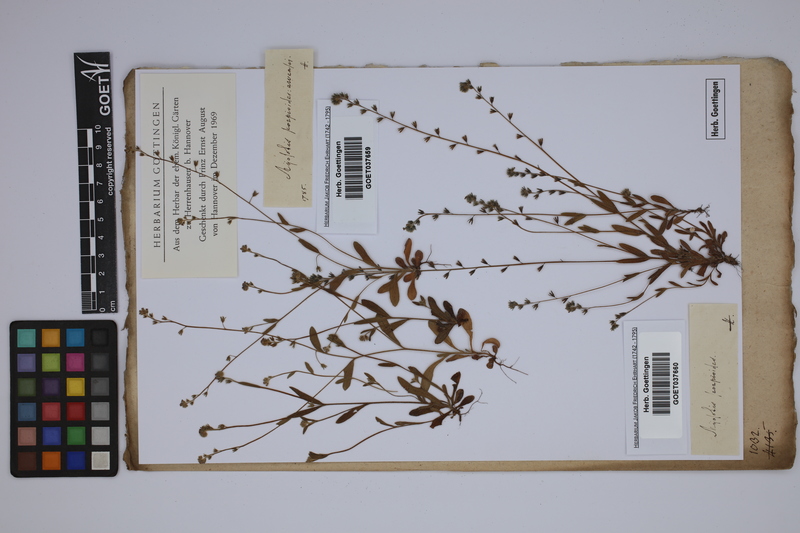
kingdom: Plantae
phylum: Tracheophyta
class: Magnoliopsida
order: Boraginales
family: Boraginaceae
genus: Myosotis
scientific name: Myosotis scorpioides
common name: Water forget-me-not
